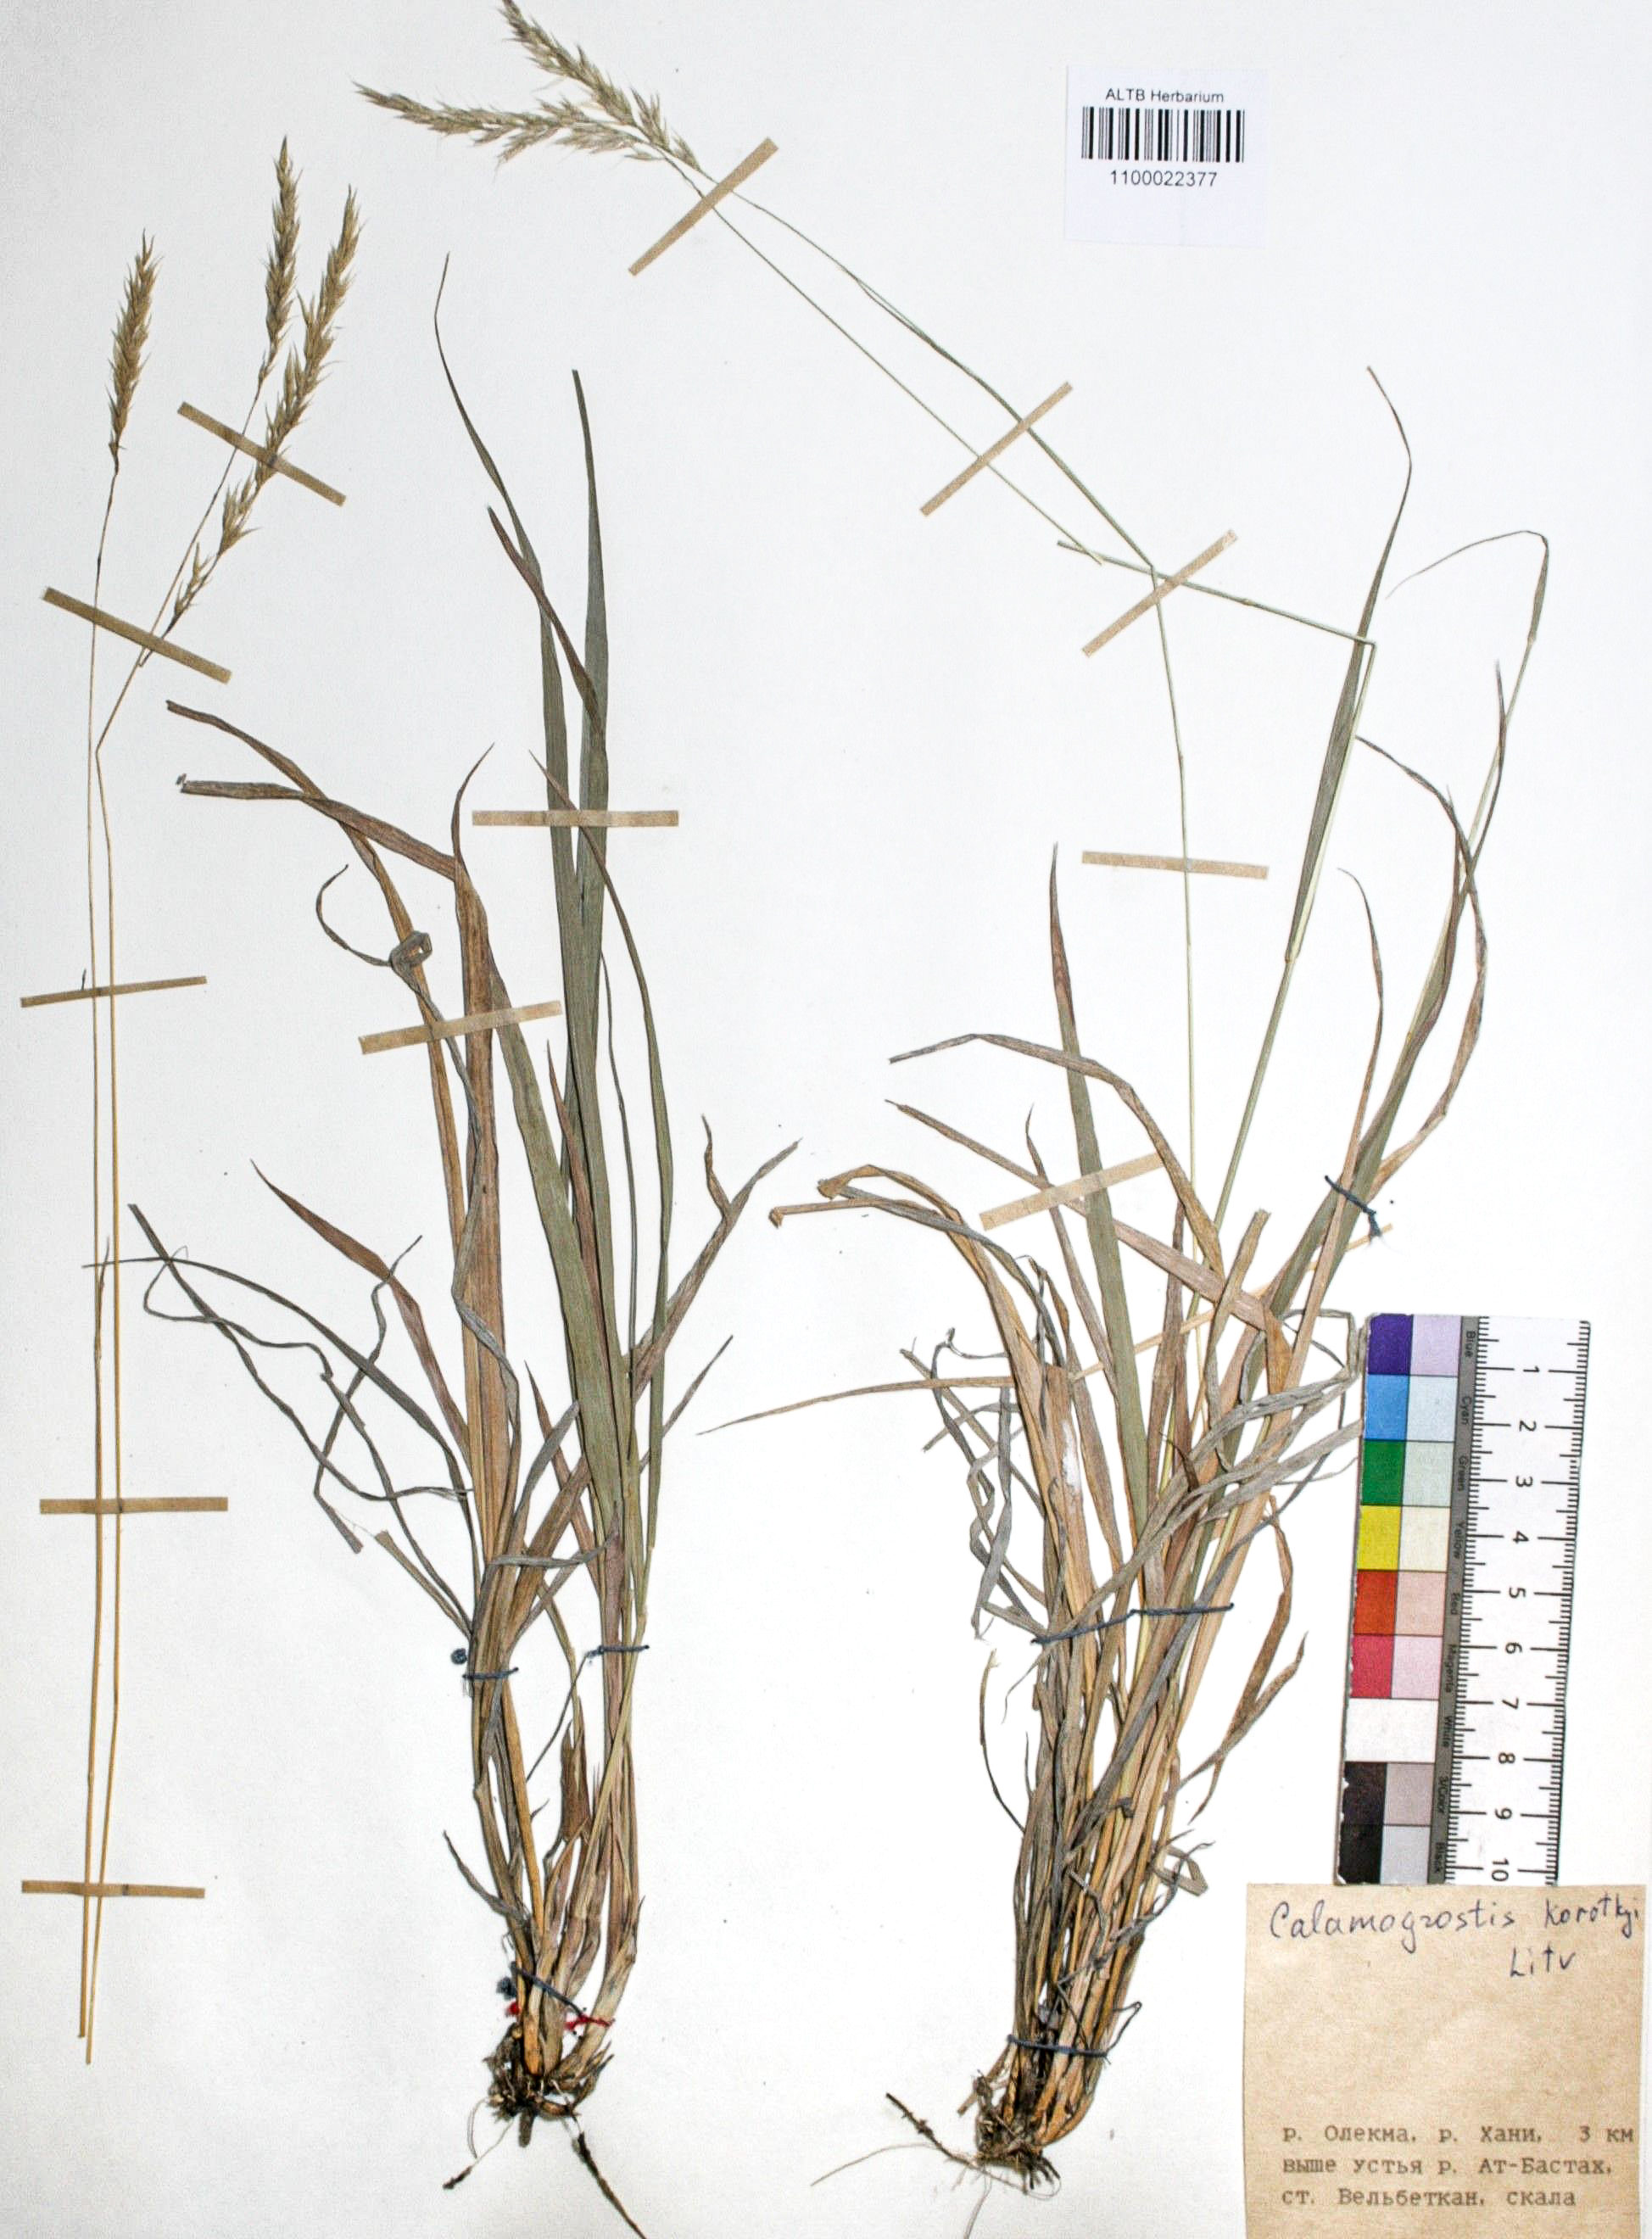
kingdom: Plantae
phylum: Tracheophyta
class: Liliopsida
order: Poales
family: Poaceae
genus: Calamagrostis
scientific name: Calamagrostis korotkyi
